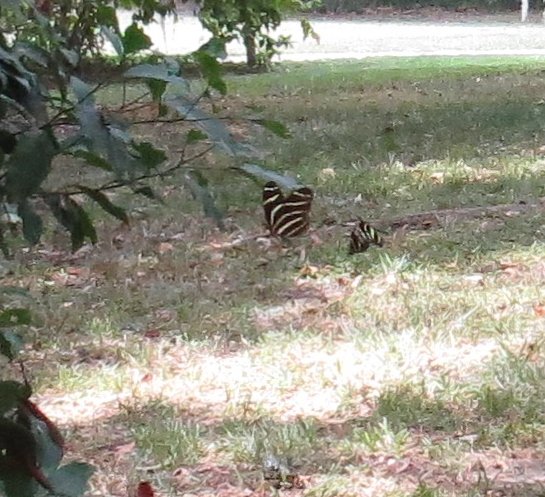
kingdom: Animalia
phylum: Arthropoda
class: Insecta
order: Lepidoptera
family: Nymphalidae
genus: Heliconius
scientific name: Heliconius charithonia
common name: Zebra Longwing
